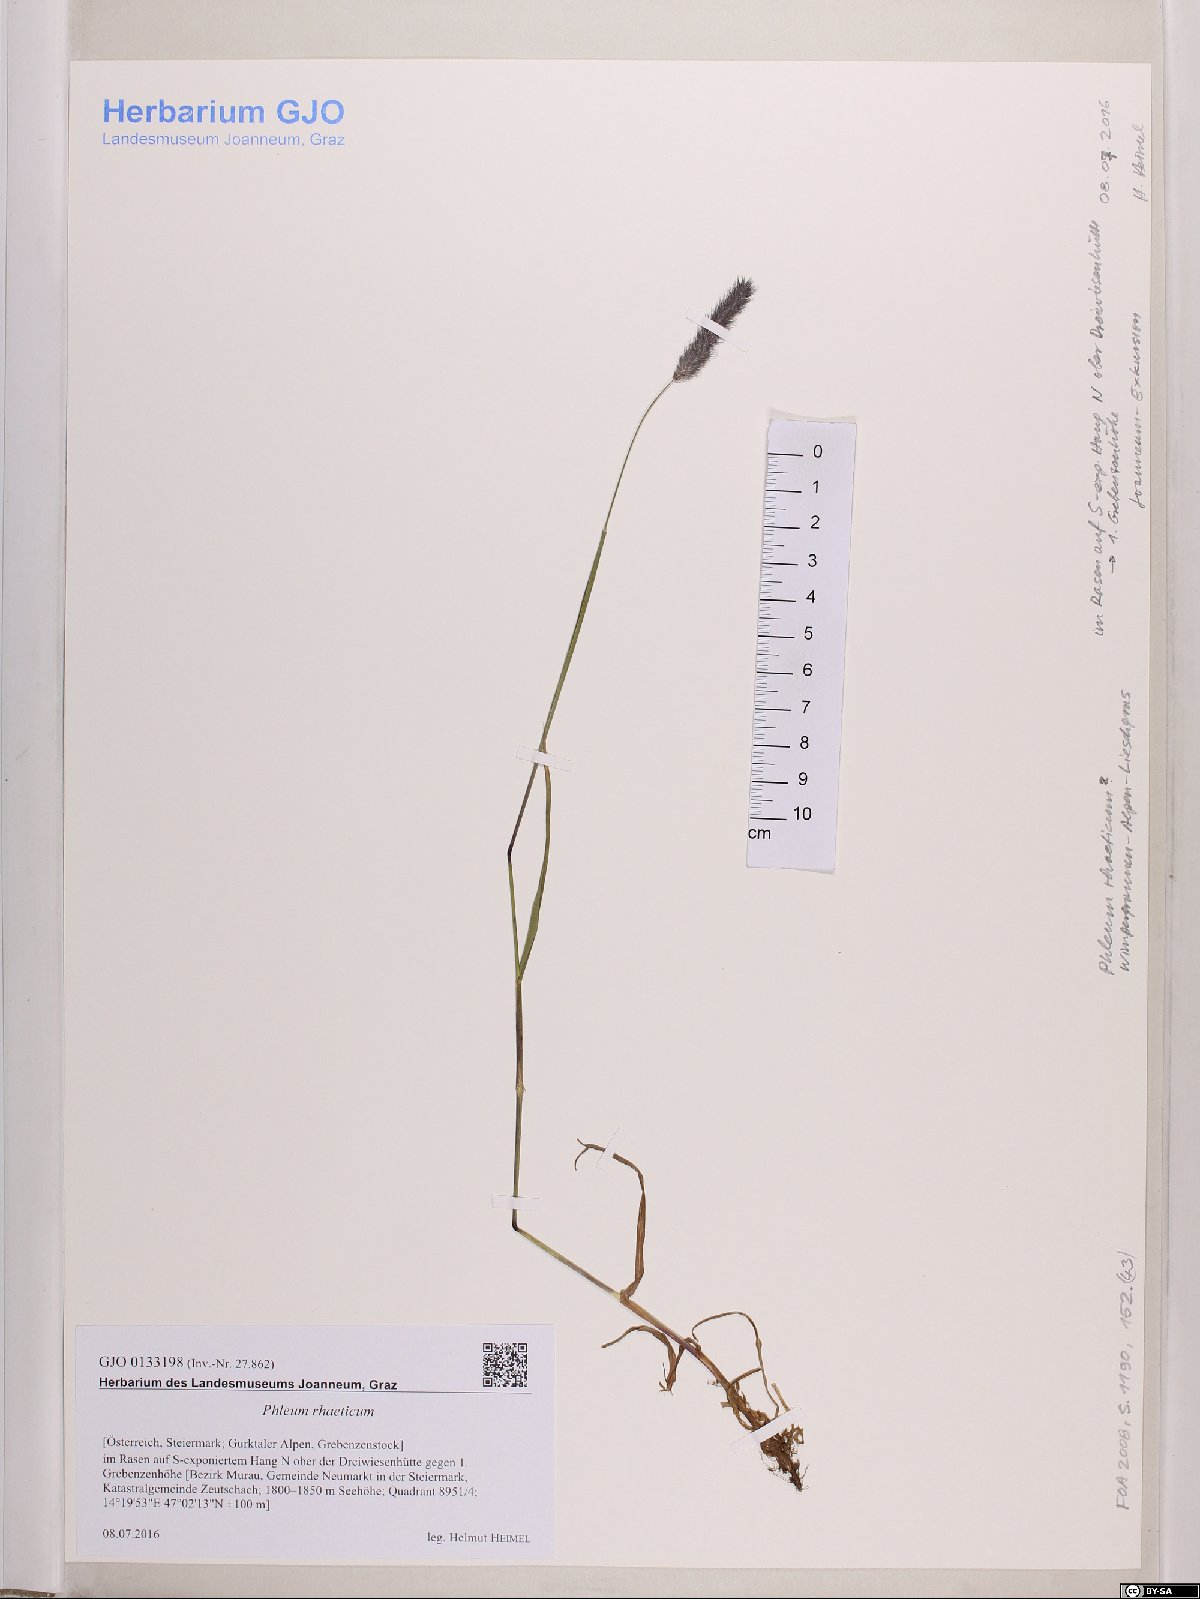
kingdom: Plantae
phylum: Tracheophyta
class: Liliopsida
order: Poales
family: Poaceae
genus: Phleum
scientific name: Phleum alpinum
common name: Alpine cat's-tail
